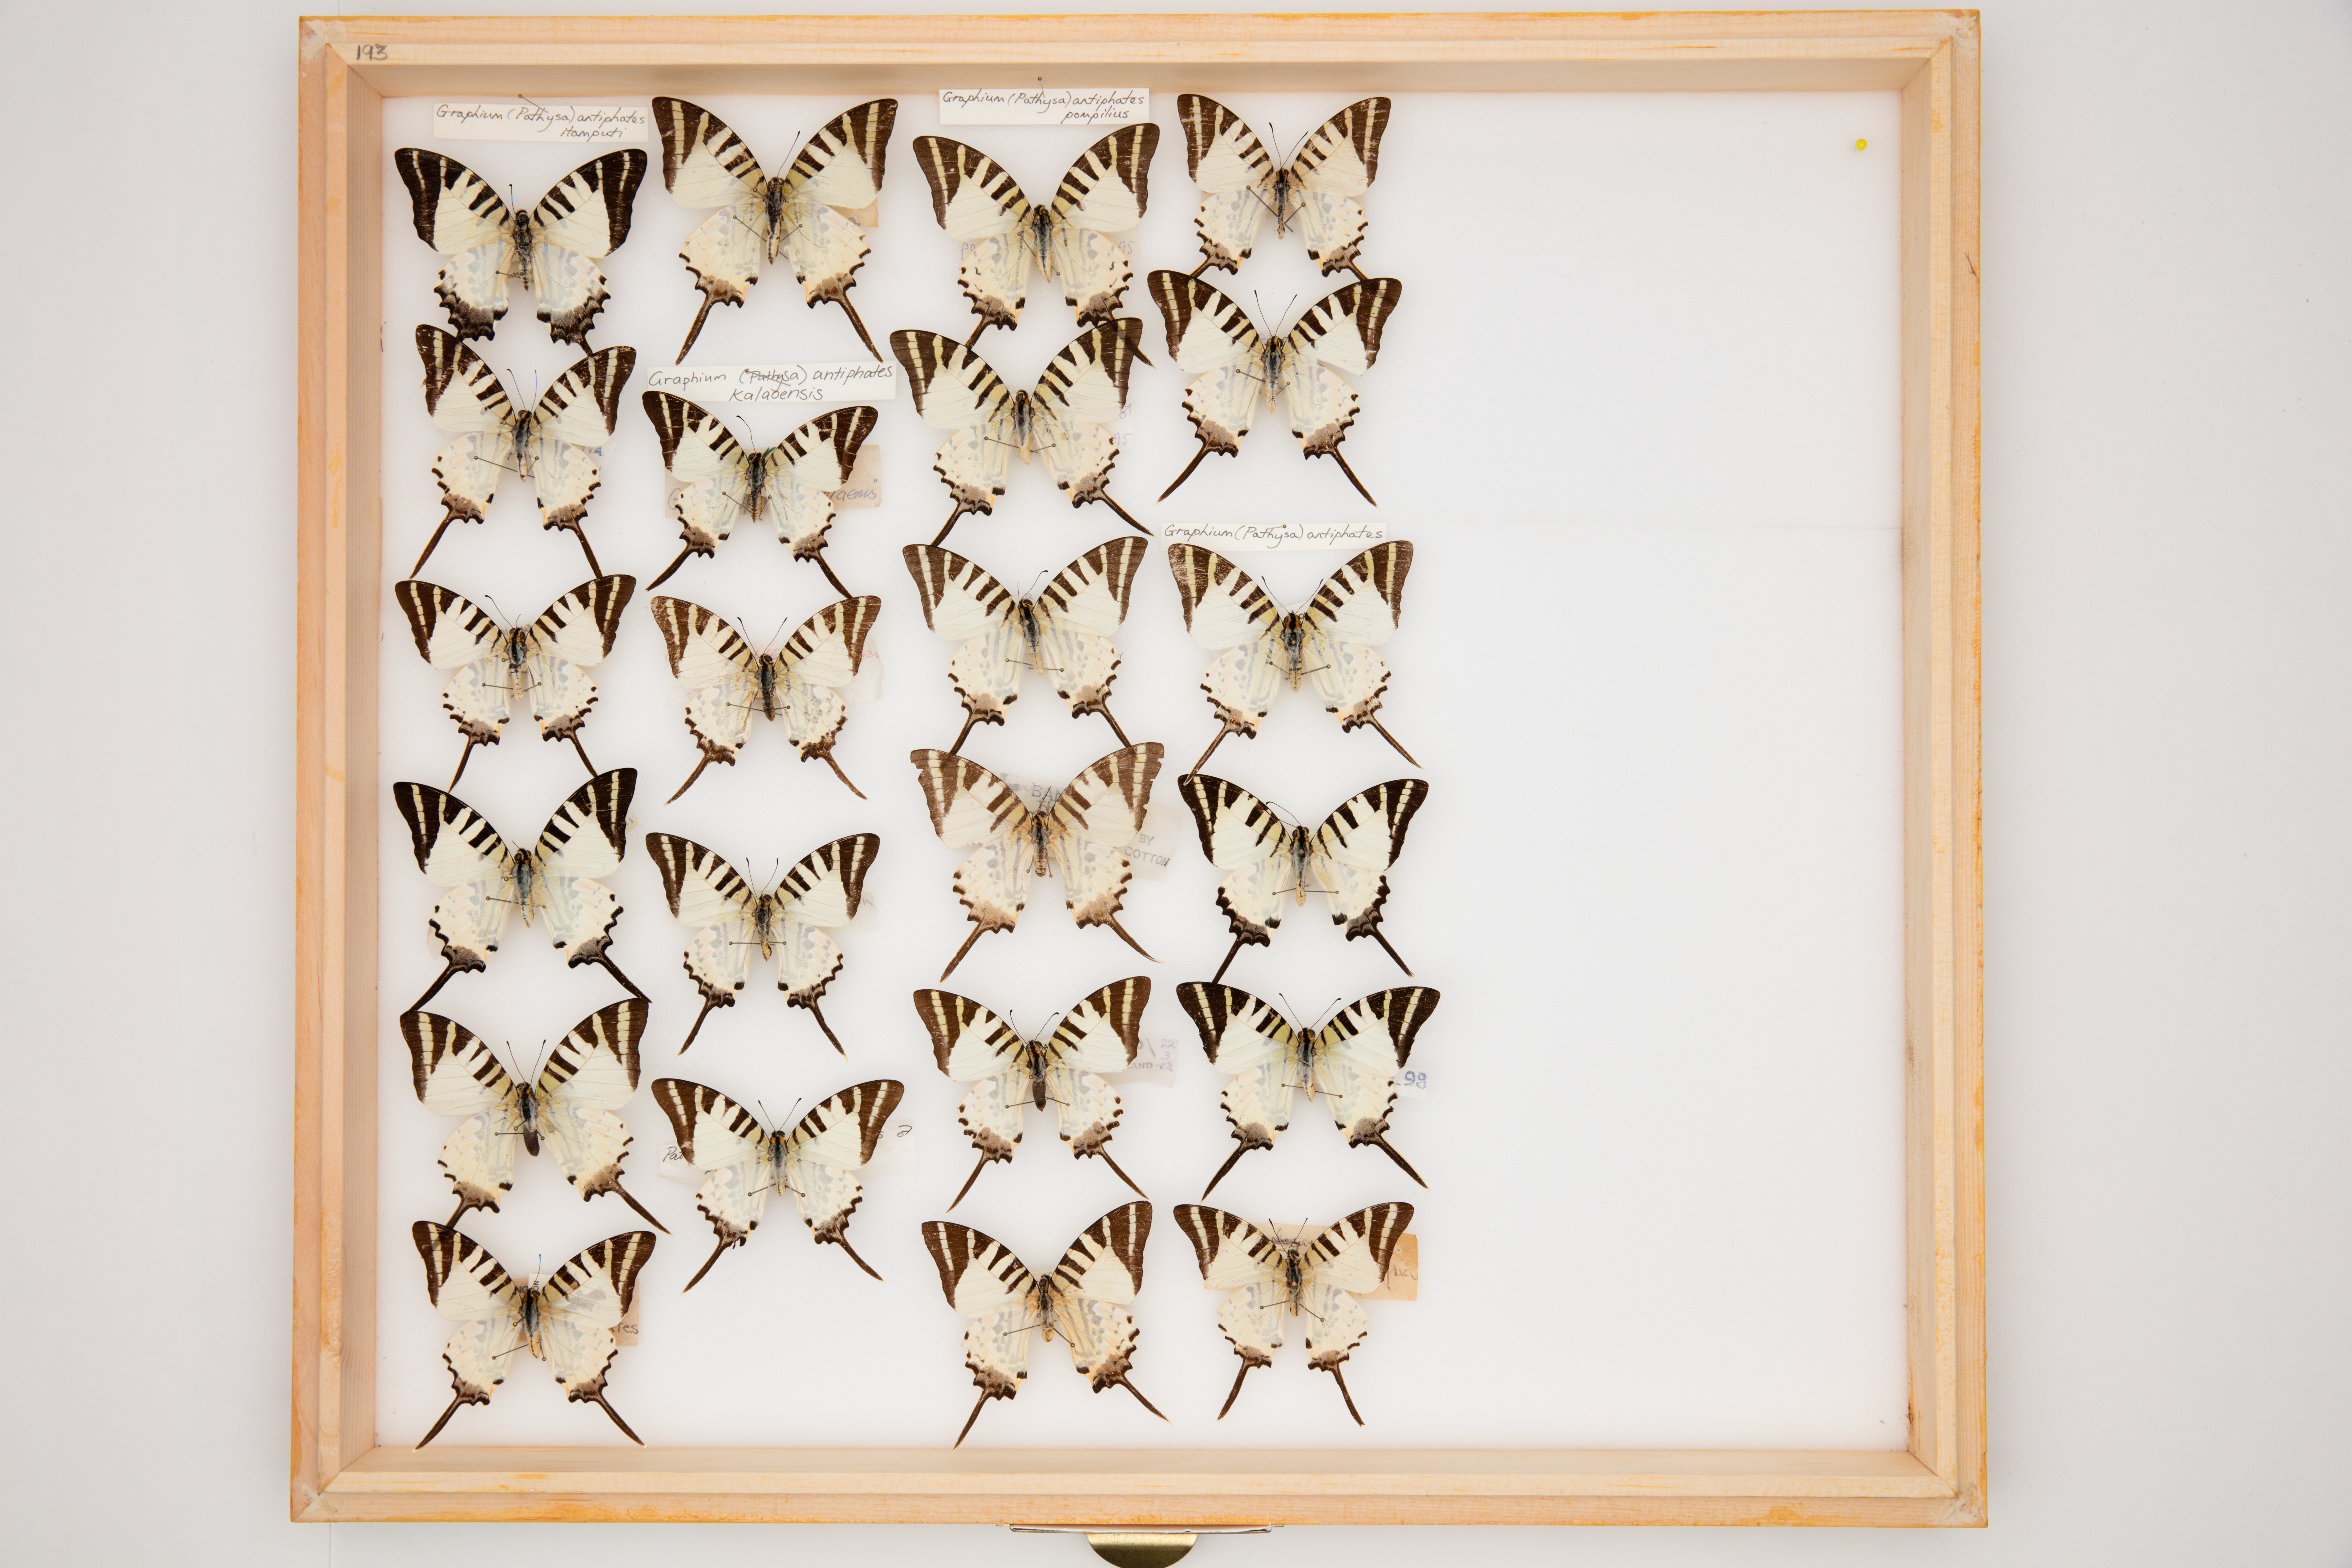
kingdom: Animalia
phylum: Arthropoda
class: Insecta
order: Lepidoptera
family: Papilionidae
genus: Graphium
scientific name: Graphium antiphates
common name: Fivebar swordtail
